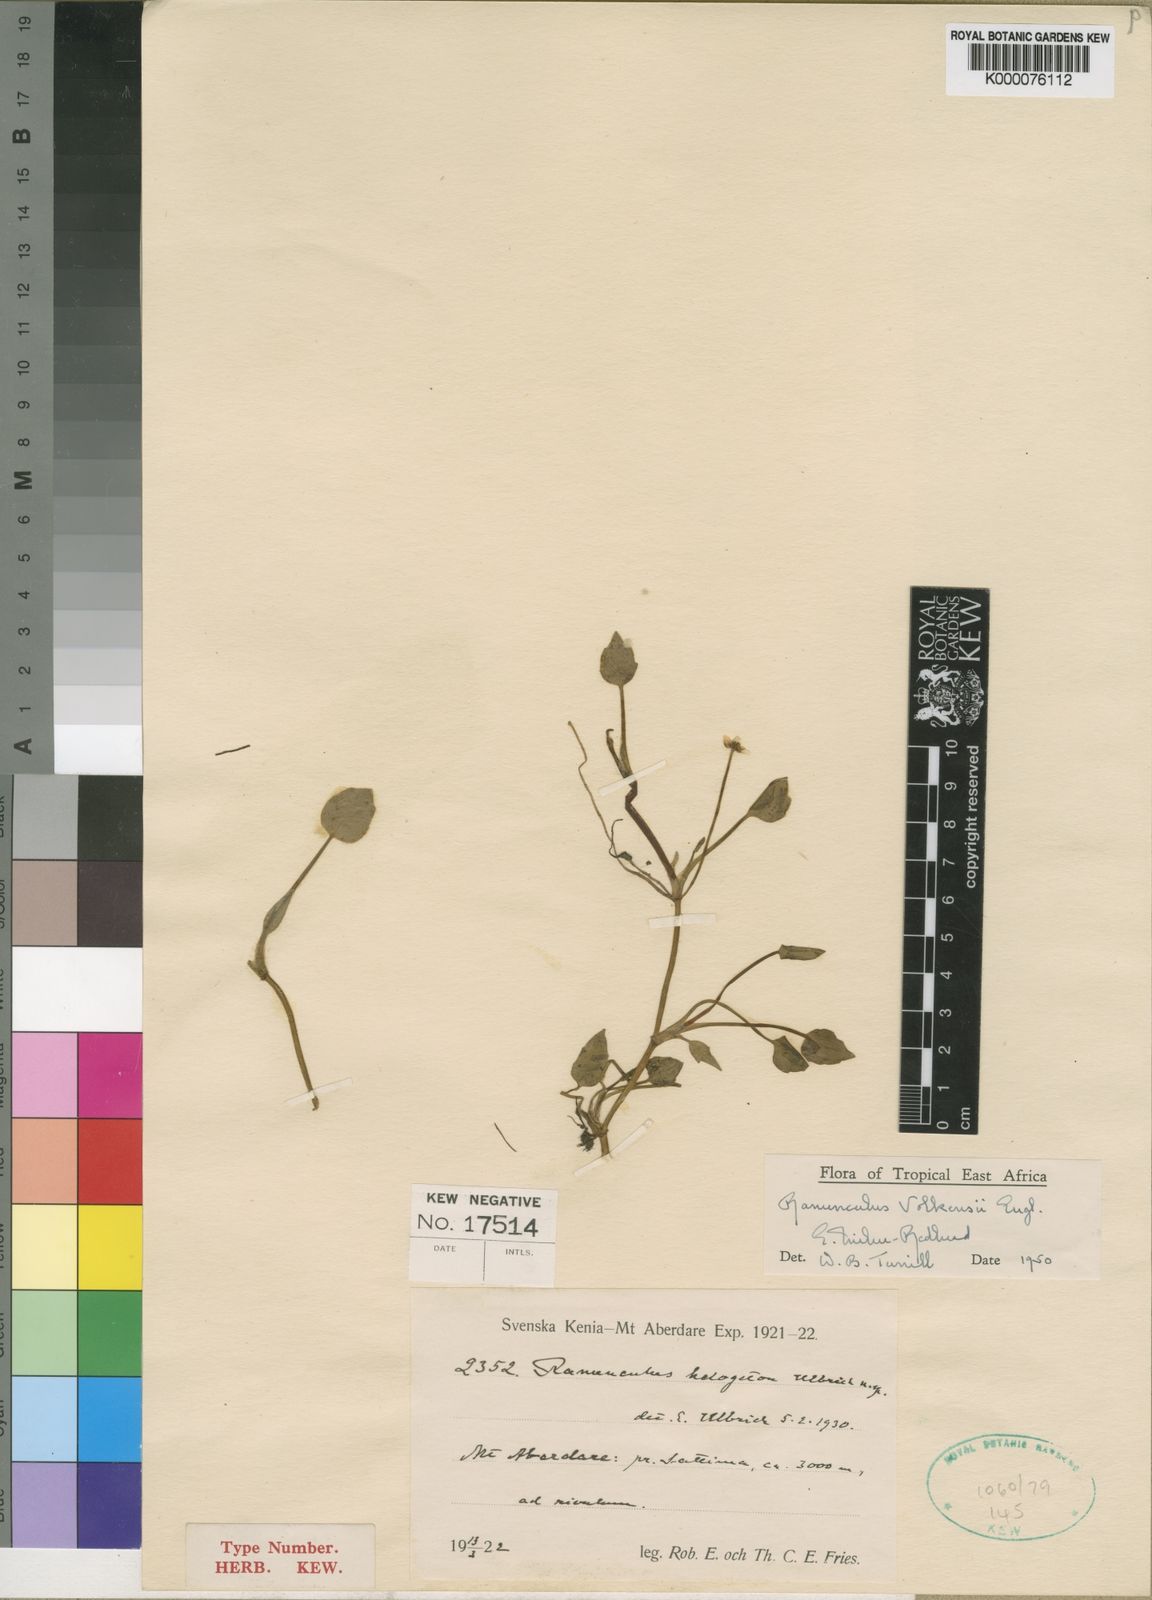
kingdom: Plantae
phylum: Tracheophyta
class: Magnoliopsida
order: Ranunculales
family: Ranunculaceae
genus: Ranunculus
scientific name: Ranunculus volkensii
